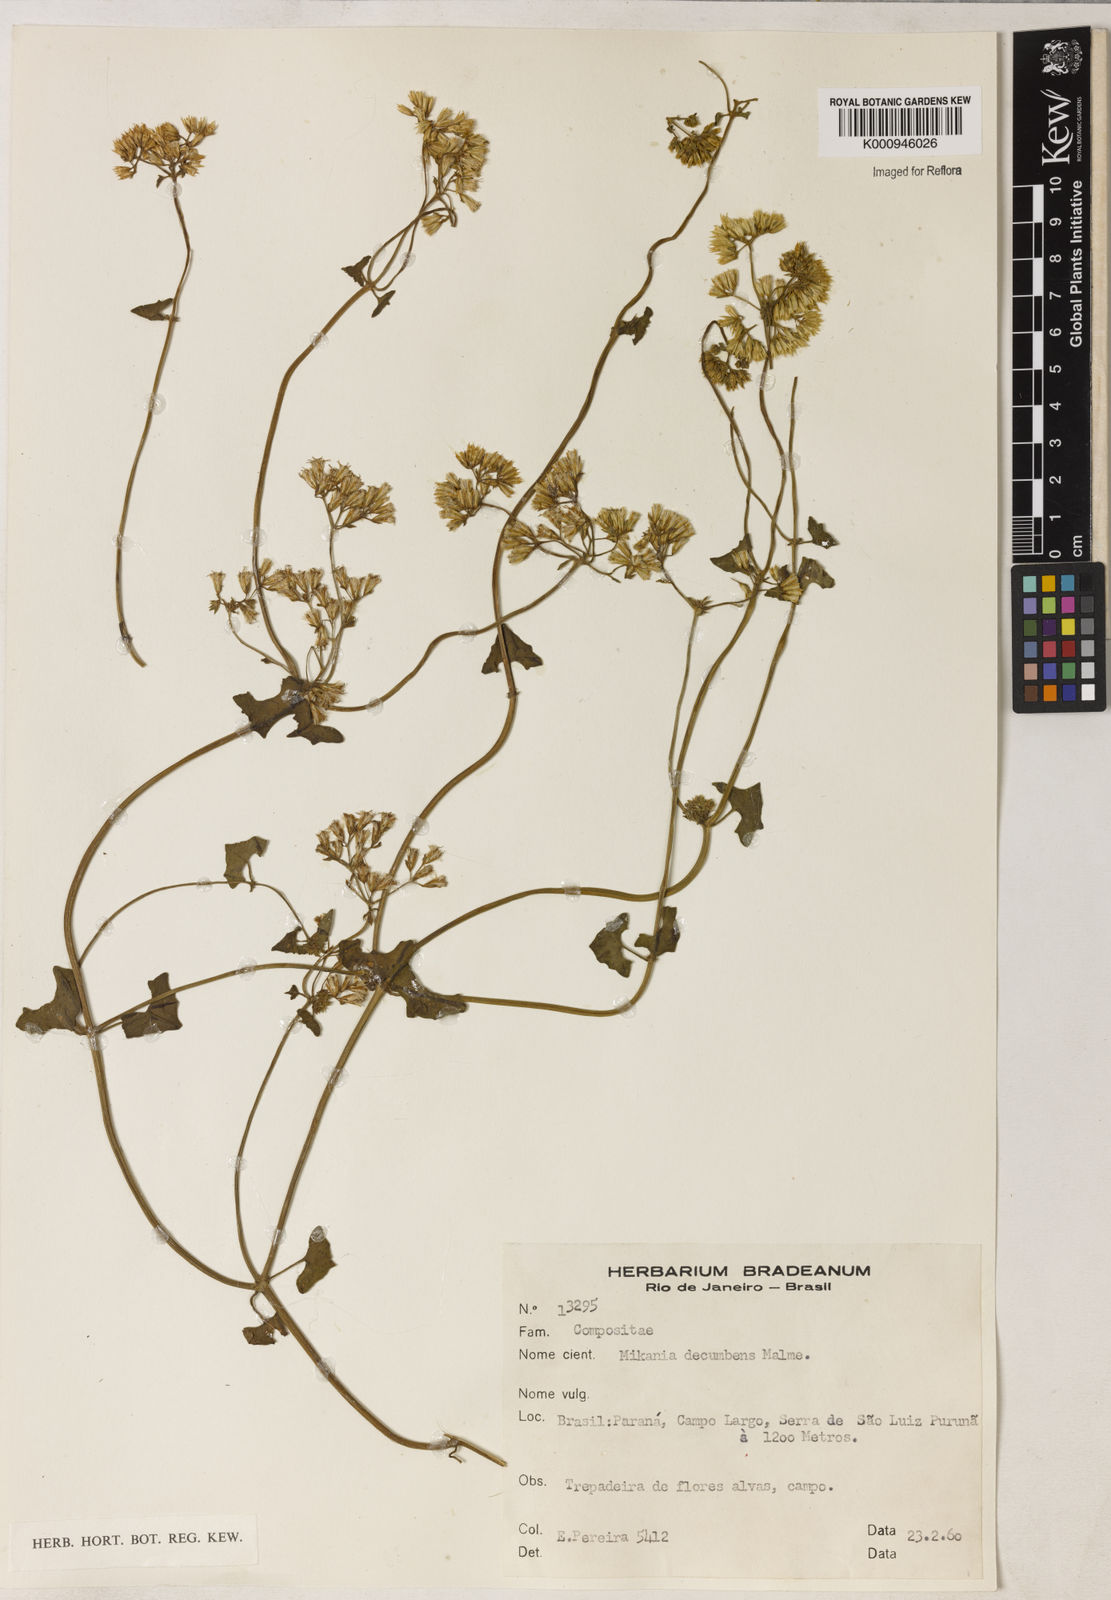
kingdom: Plantae
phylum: Tracheophyta
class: Magnoliopsida
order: Asterales
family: Asteraceae
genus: Mikania
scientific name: Mikania decumbens
